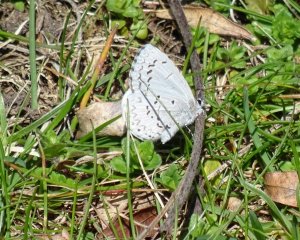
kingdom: Animalia
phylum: Arthropoda
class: Insecta
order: Lepidoptera
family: Lycaenidae
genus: Celastrina
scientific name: Celastrina
